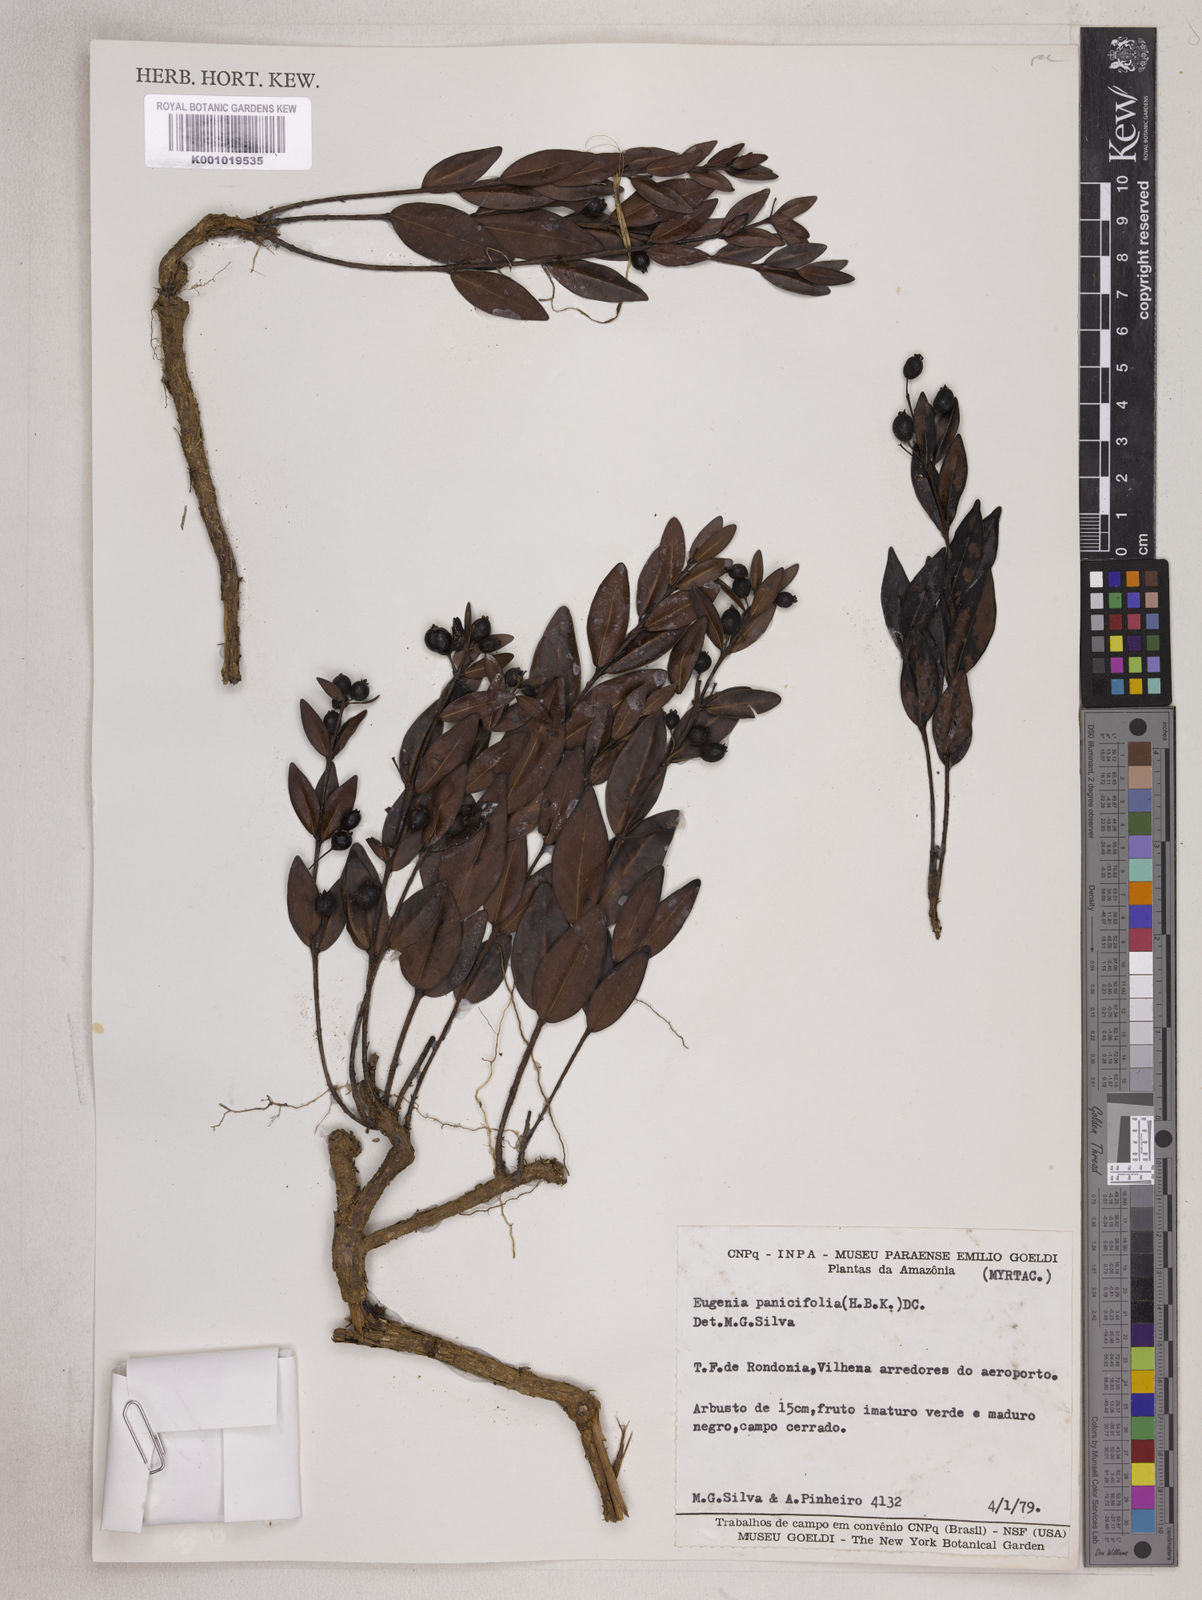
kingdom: Plantae
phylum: Tracheophyta
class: Magnoliopsida
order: Myrtales
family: Myrtaceae
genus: Eugenia
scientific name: Eugenia punicifolia
